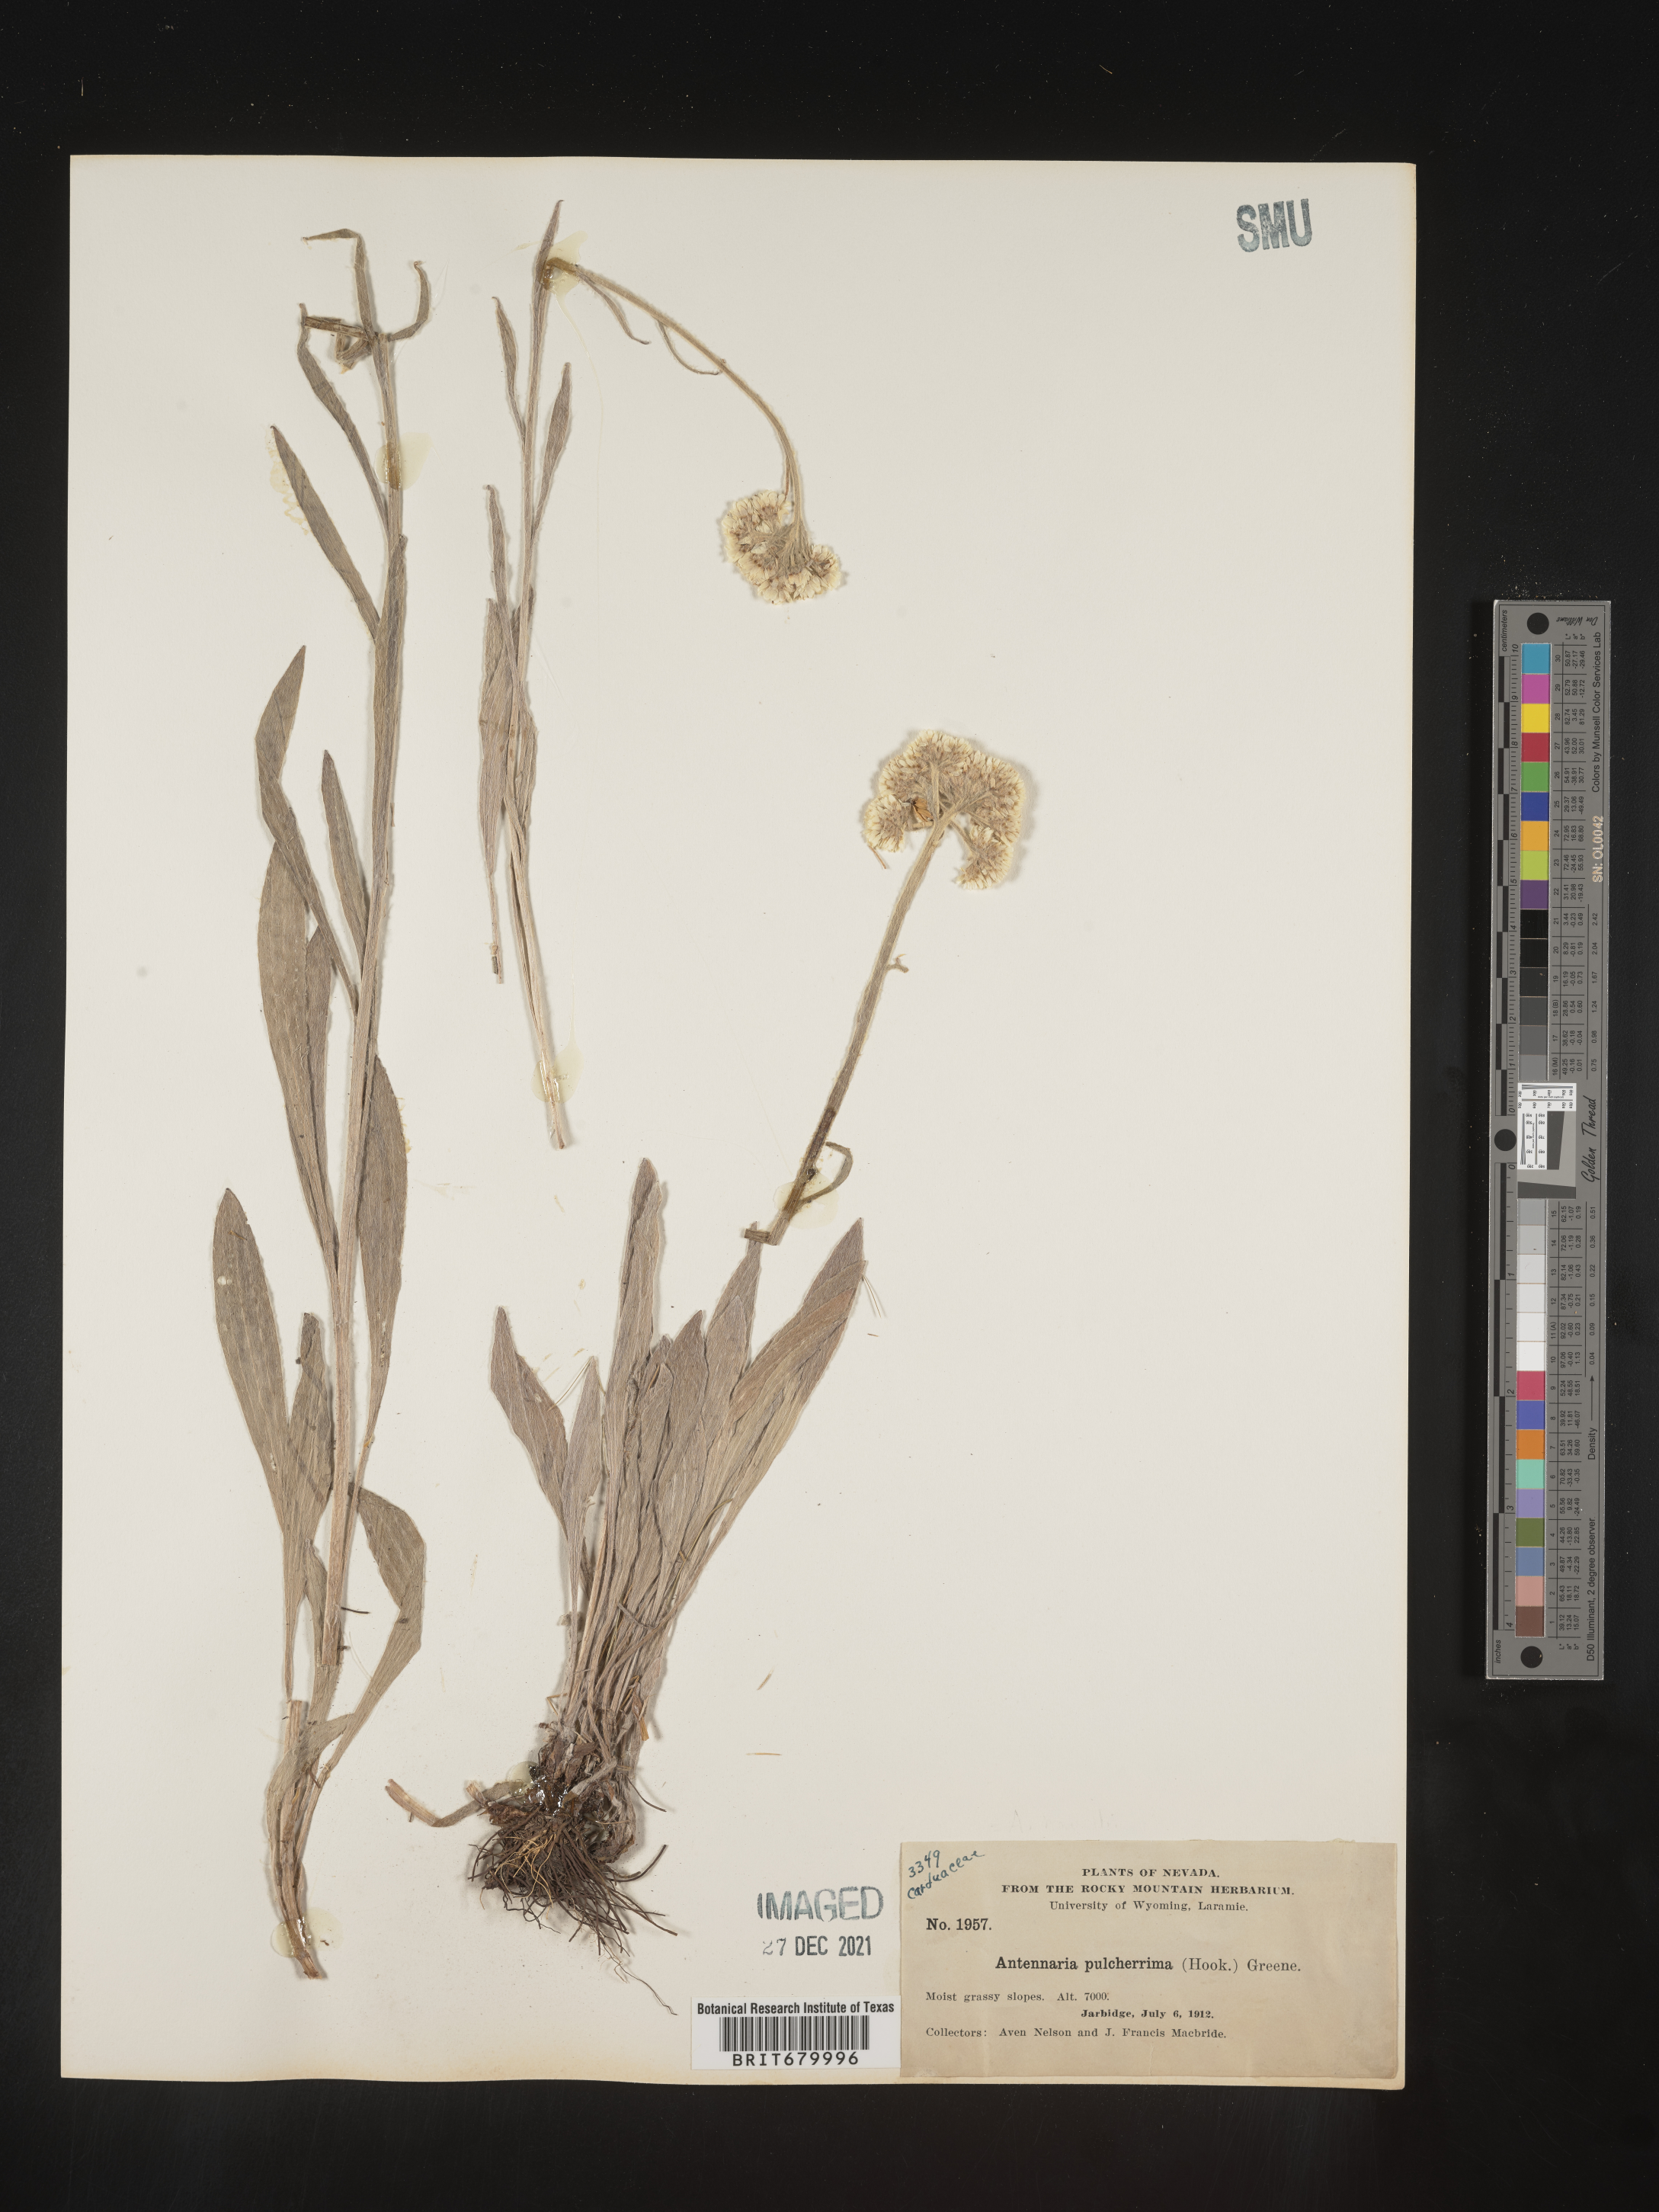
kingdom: Plantae
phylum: Tracheophyta
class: Magnoliopsida
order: Asterales
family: Asteraceae
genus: Antennaria
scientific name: Antennaria pulcherrima
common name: Handsome pussytoes
